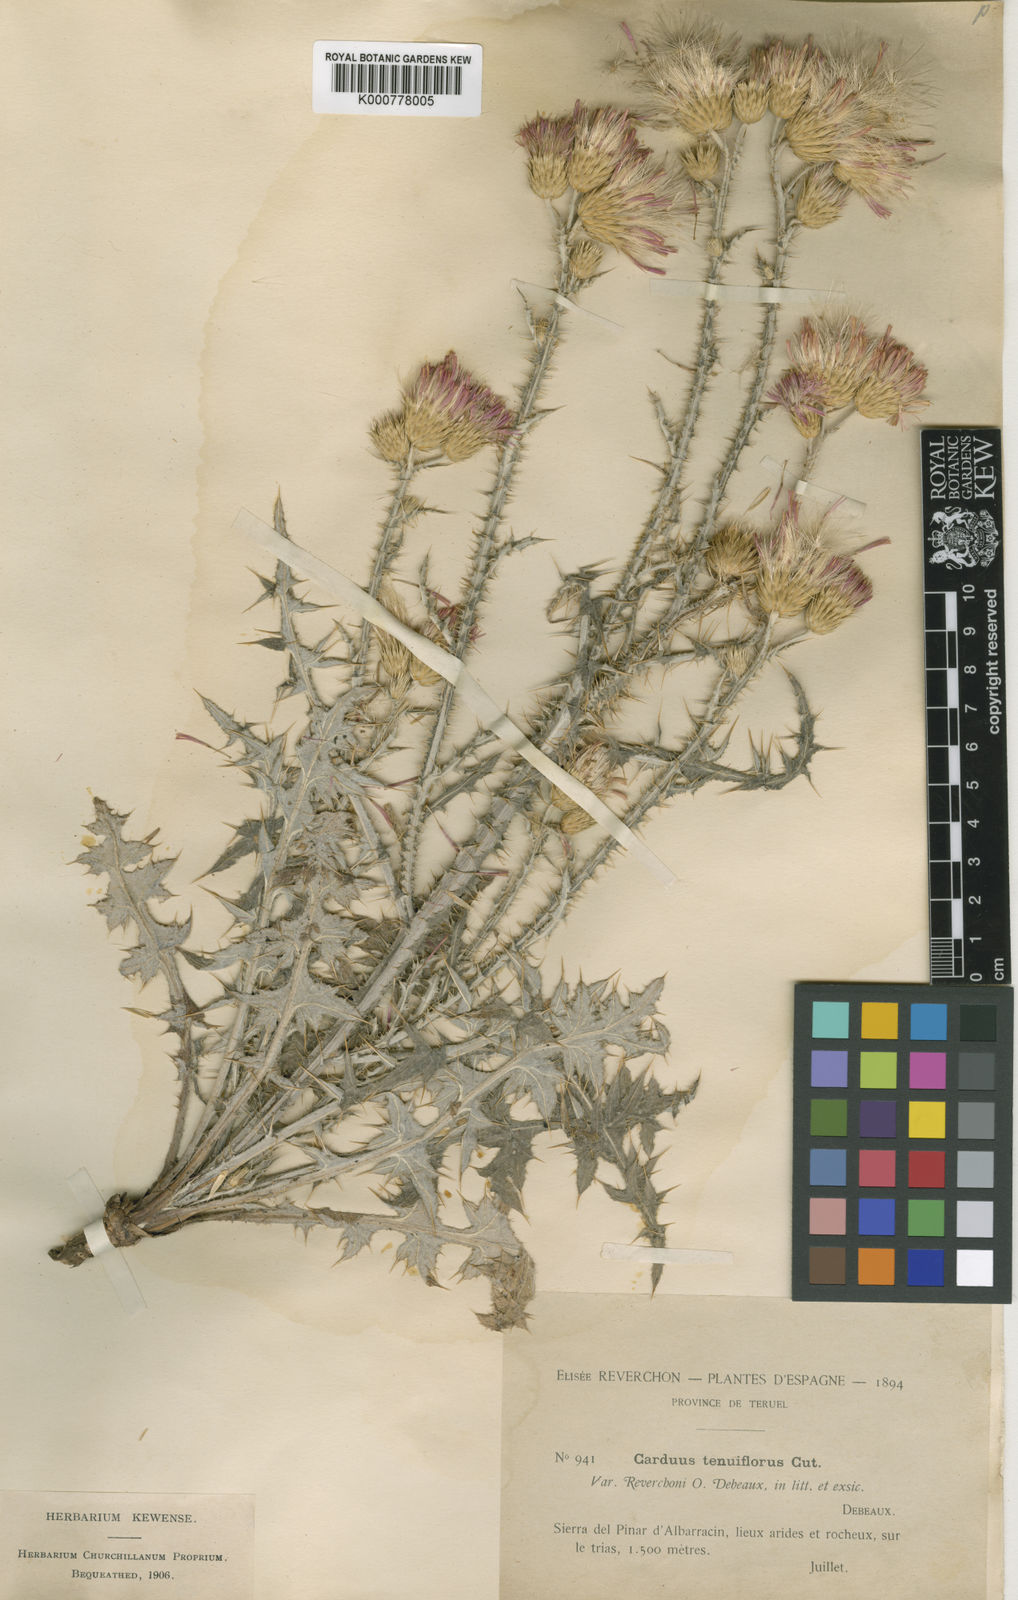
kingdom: Plantae
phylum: Tracheophyta
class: Magnoliopsida
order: Asterales
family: Asteraceae
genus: Carduus
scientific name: Carduus tenuiflorus
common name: Slender thistle
